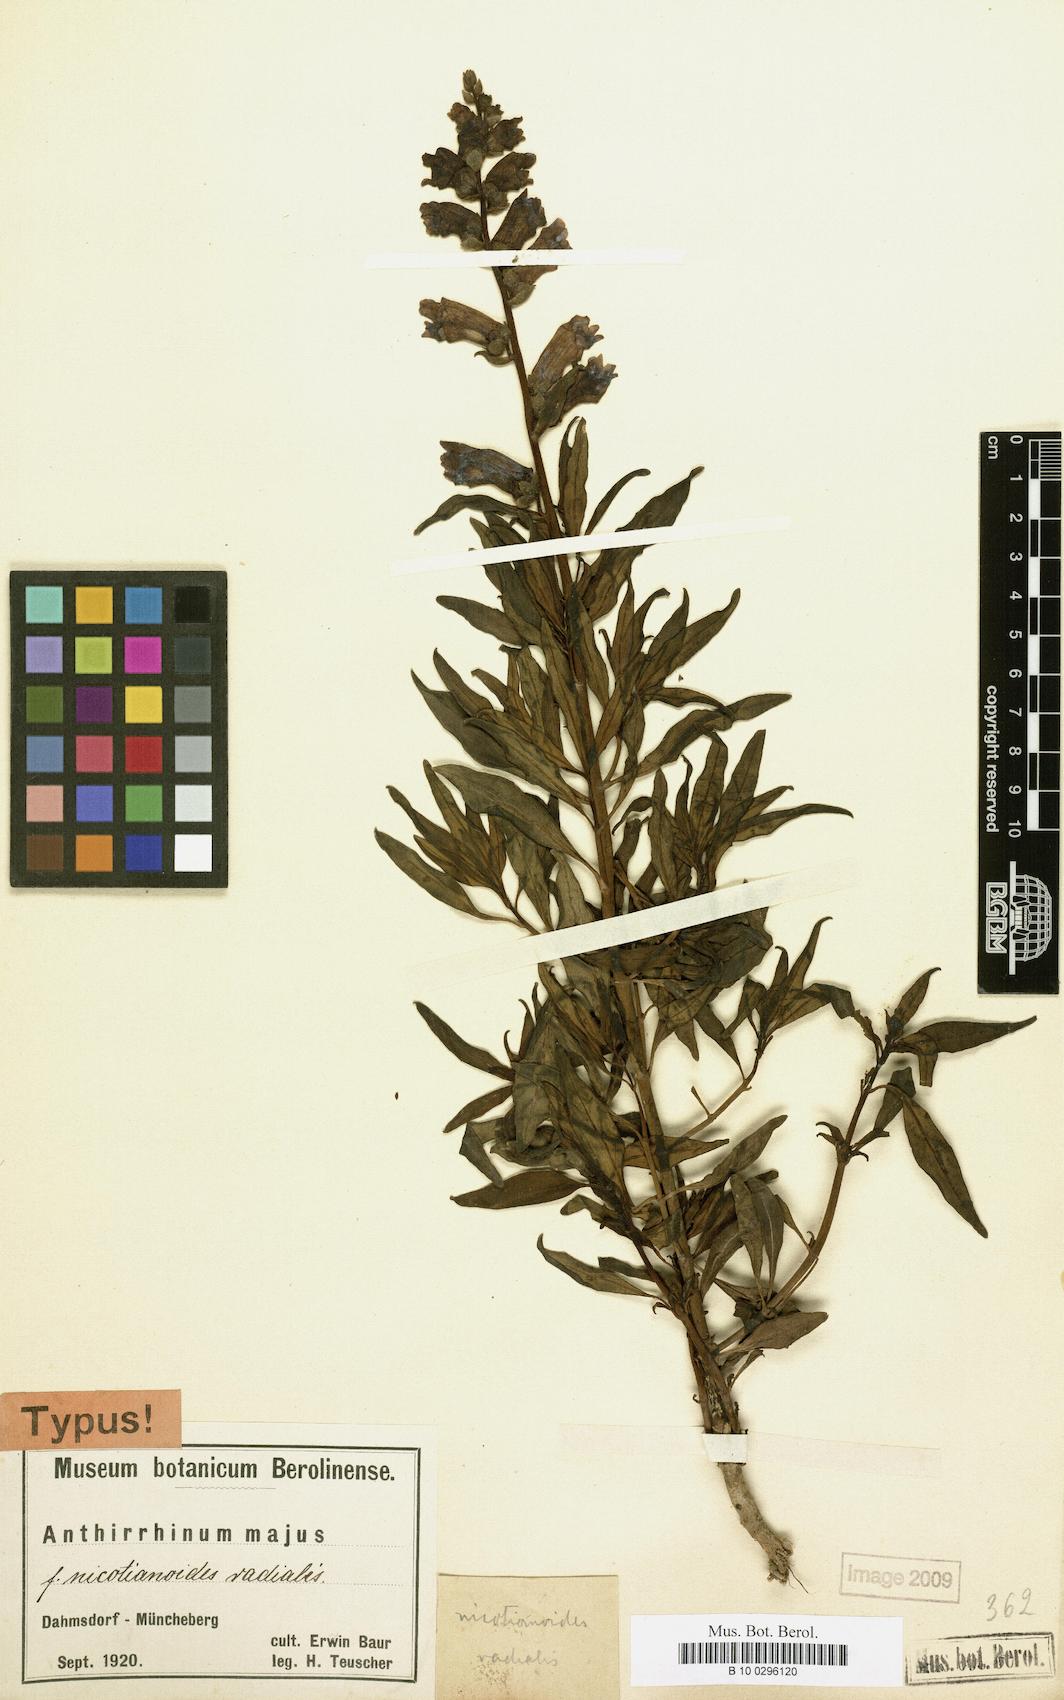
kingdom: Plantae
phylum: Tracheophyta
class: Magnoliopsida
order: Lamiales
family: Plantaginaceae
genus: Antirrhinum
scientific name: Antirrhinum majus
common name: Snapdragon
